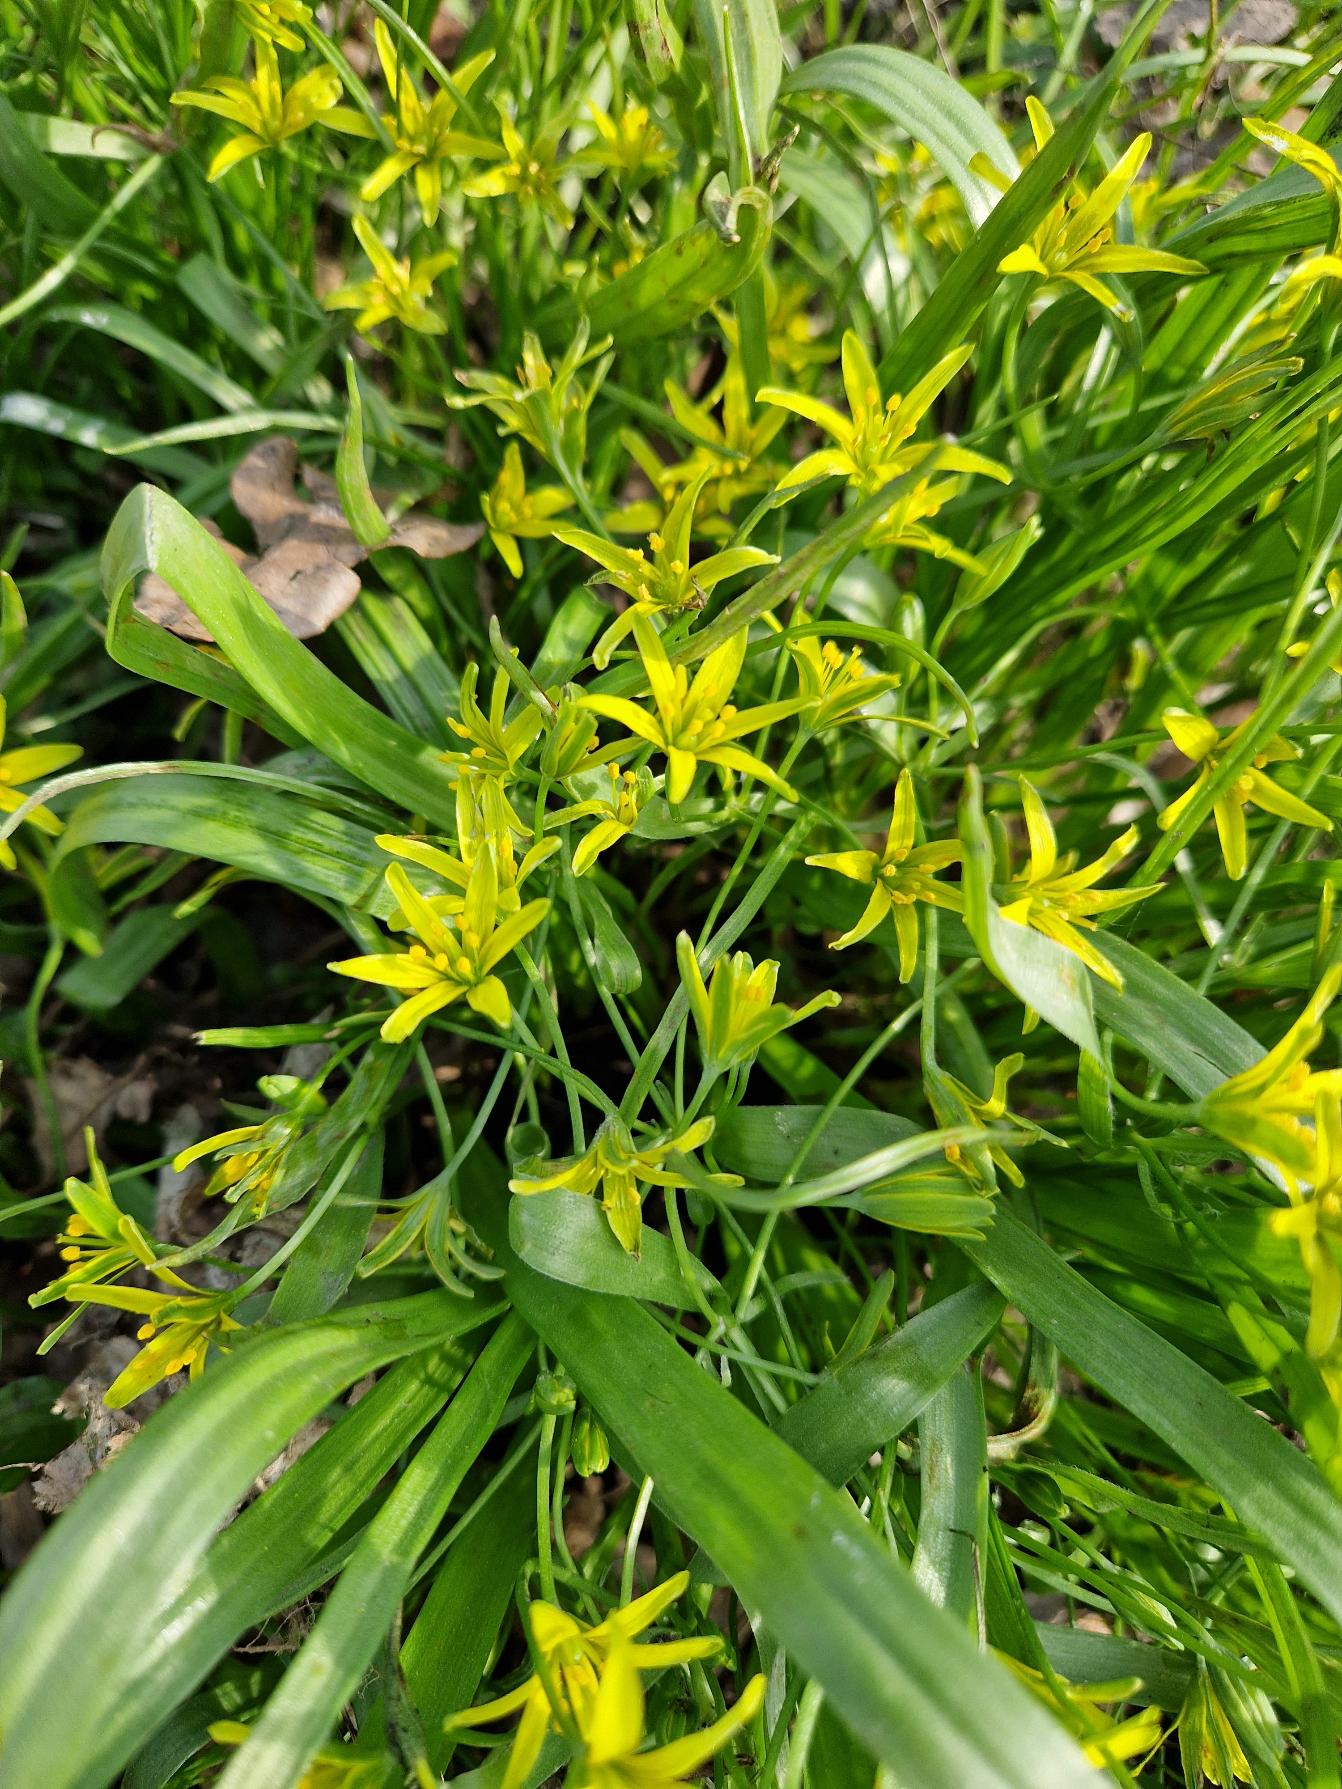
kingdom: Plantae
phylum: Tracheophyta
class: Liliopsida
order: Liliales
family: Liliaceae
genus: Gagea
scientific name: Gagea lutea
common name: Almindelig guldstjerne
